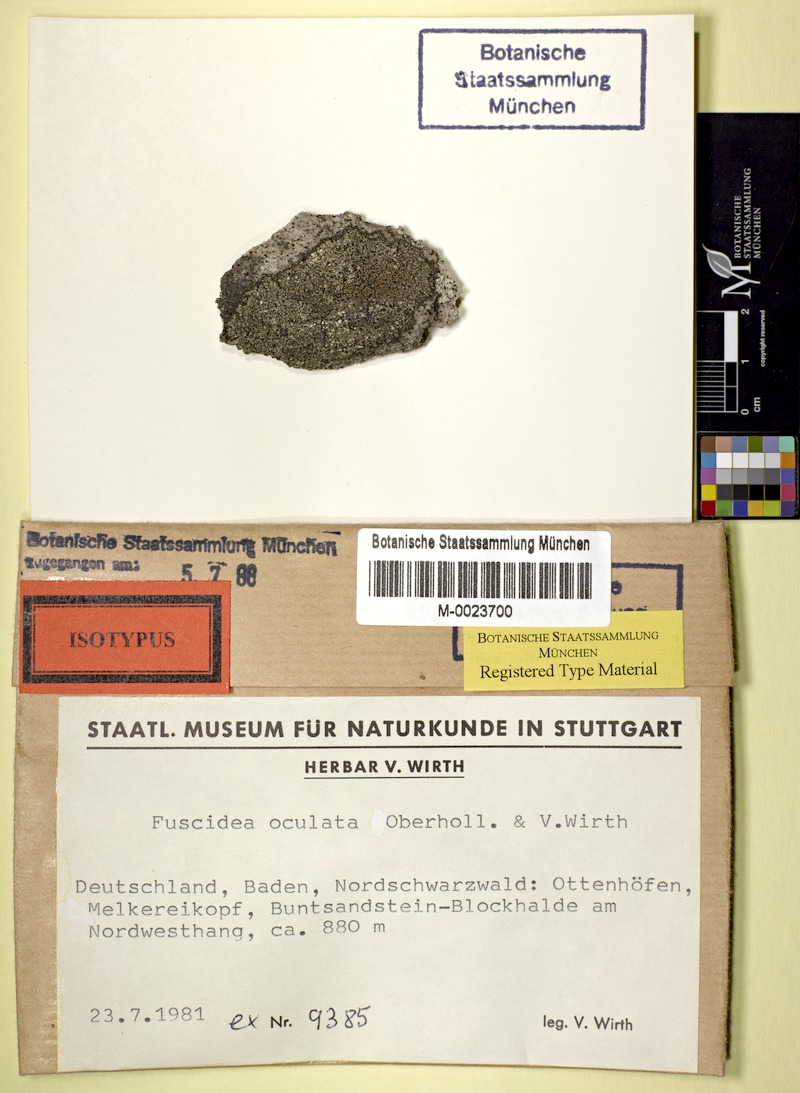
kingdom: Fungi
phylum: Ascomycota
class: Lecanoromycetes
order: Umbilicariales
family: Fuscideaceae
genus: Fuscidea
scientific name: Fuscidea
